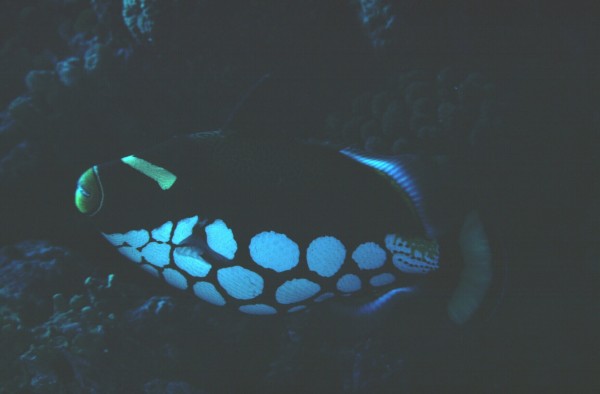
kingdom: Animalia
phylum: Chordata
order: Tetraodontiformes
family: Balistidae
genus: Balistoides
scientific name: Balistoides conspicillum
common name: Clown triggerfish
